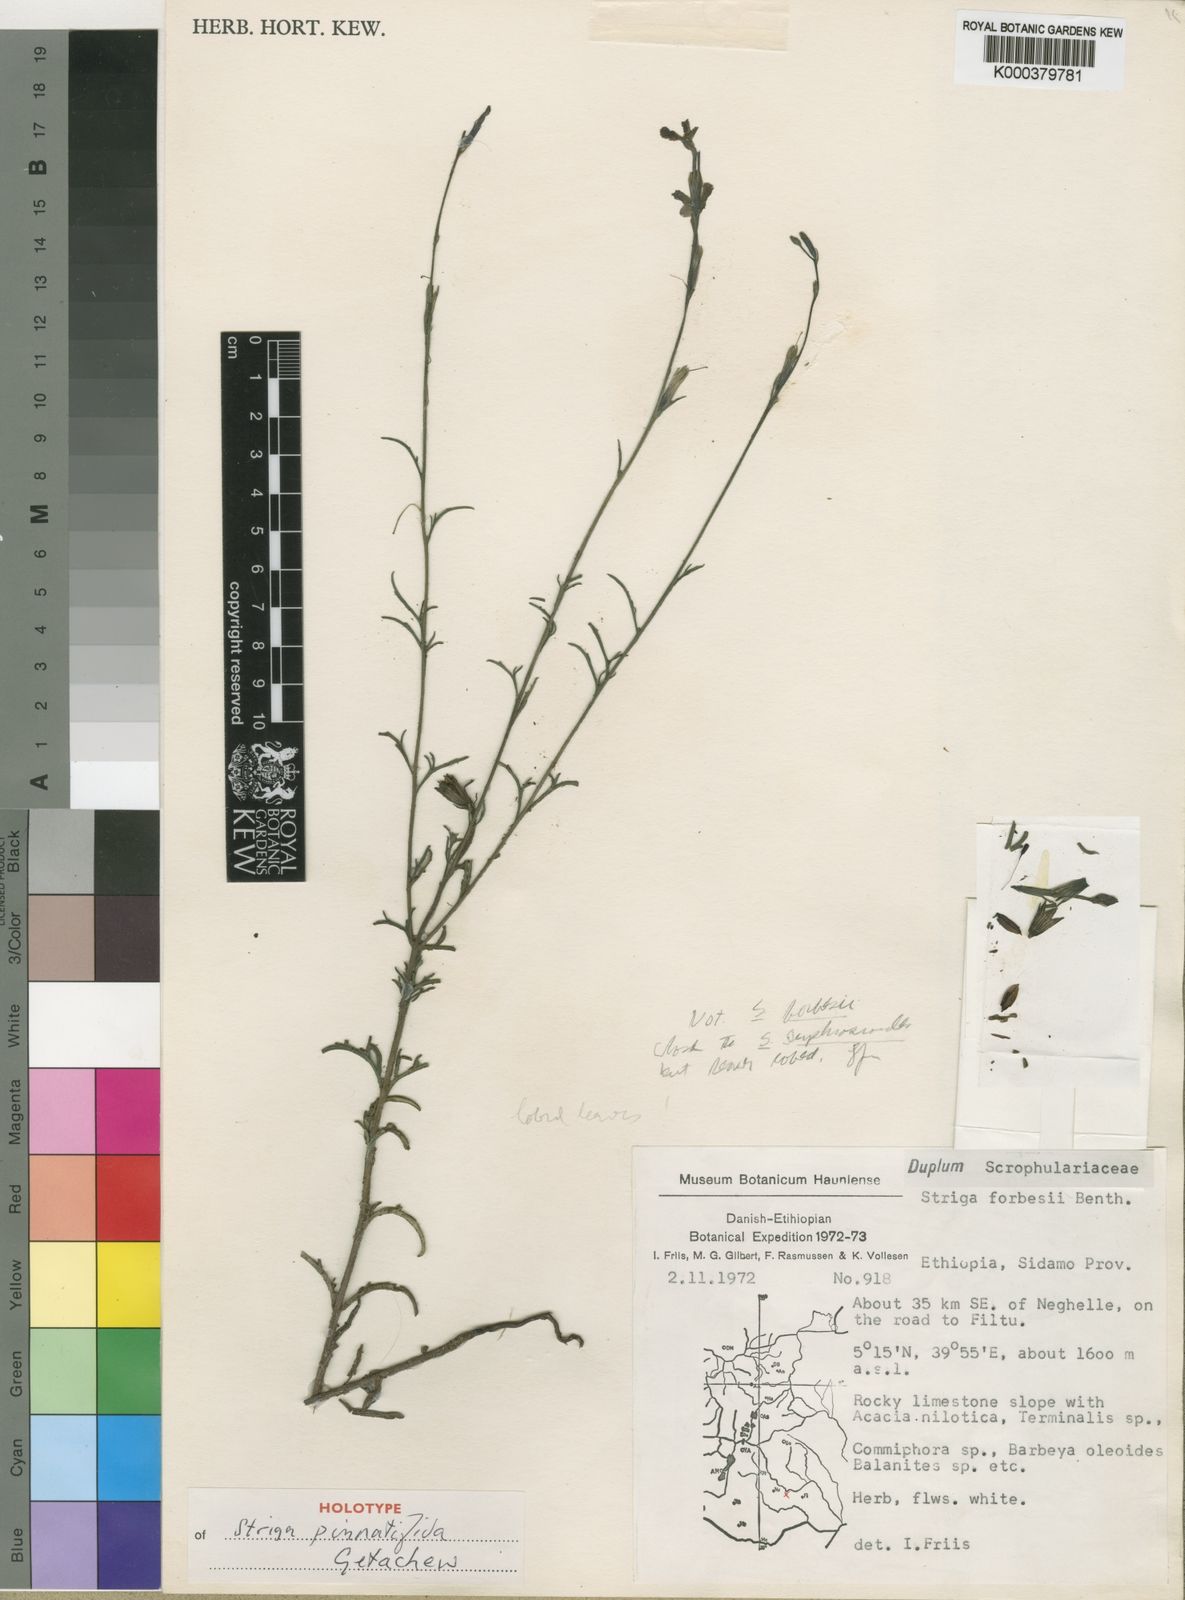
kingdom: Plantae
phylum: Tracheophyta
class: Magnoliopsida
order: Lamiales
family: Orobanchaceae
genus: Striga
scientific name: Striga
